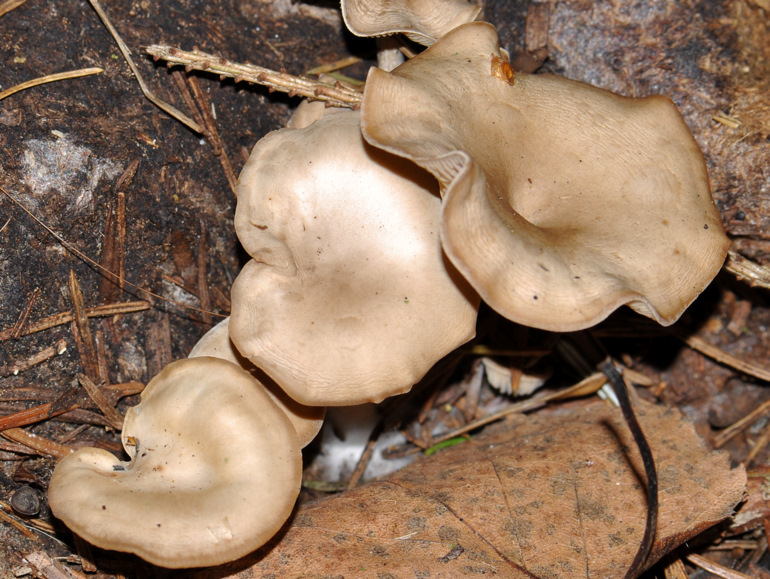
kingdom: Fungi
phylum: Basidiomycota
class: Agaricomycetes
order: Agaricales
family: Tricholomataceae
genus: Clitocybe
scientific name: Clitocybe amarescens
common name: gødnings-tragthat
